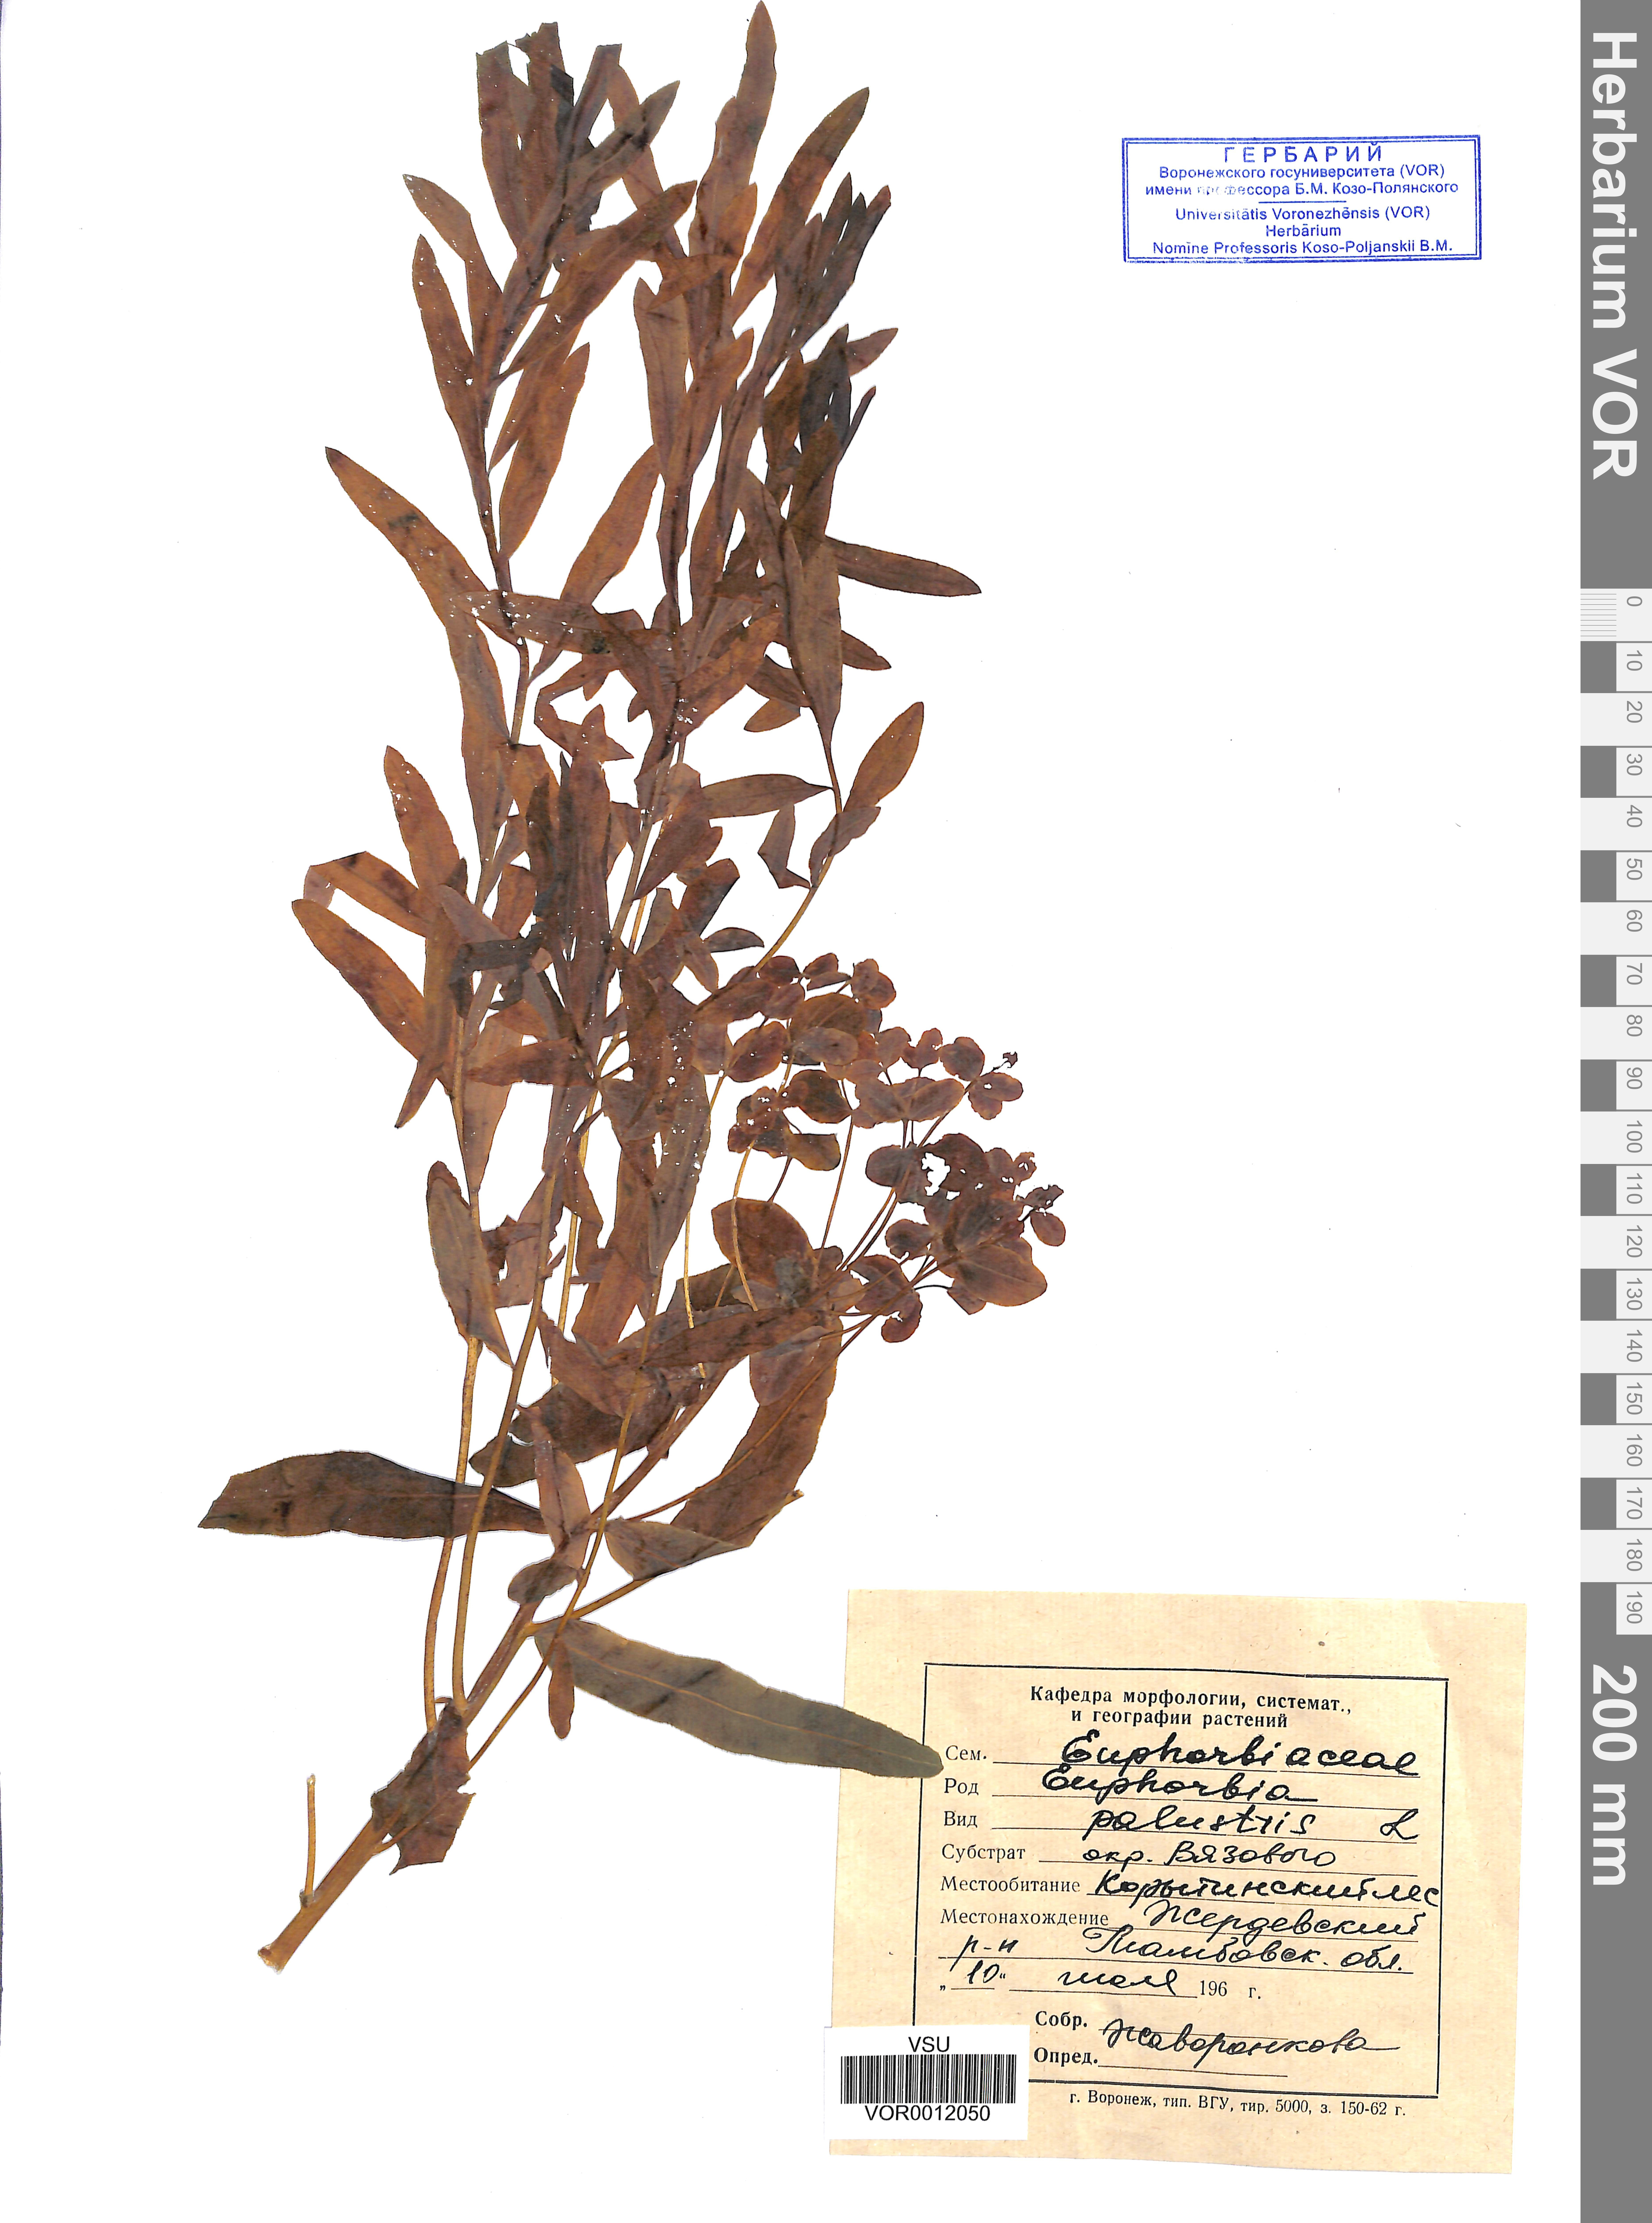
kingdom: Plantae
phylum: Tracheophyta
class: Magnoliopsida
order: Malpighiales
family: Euphorbiaceae
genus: Euphorbia
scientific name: Euphorbia palustris
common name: Marsh spurge
